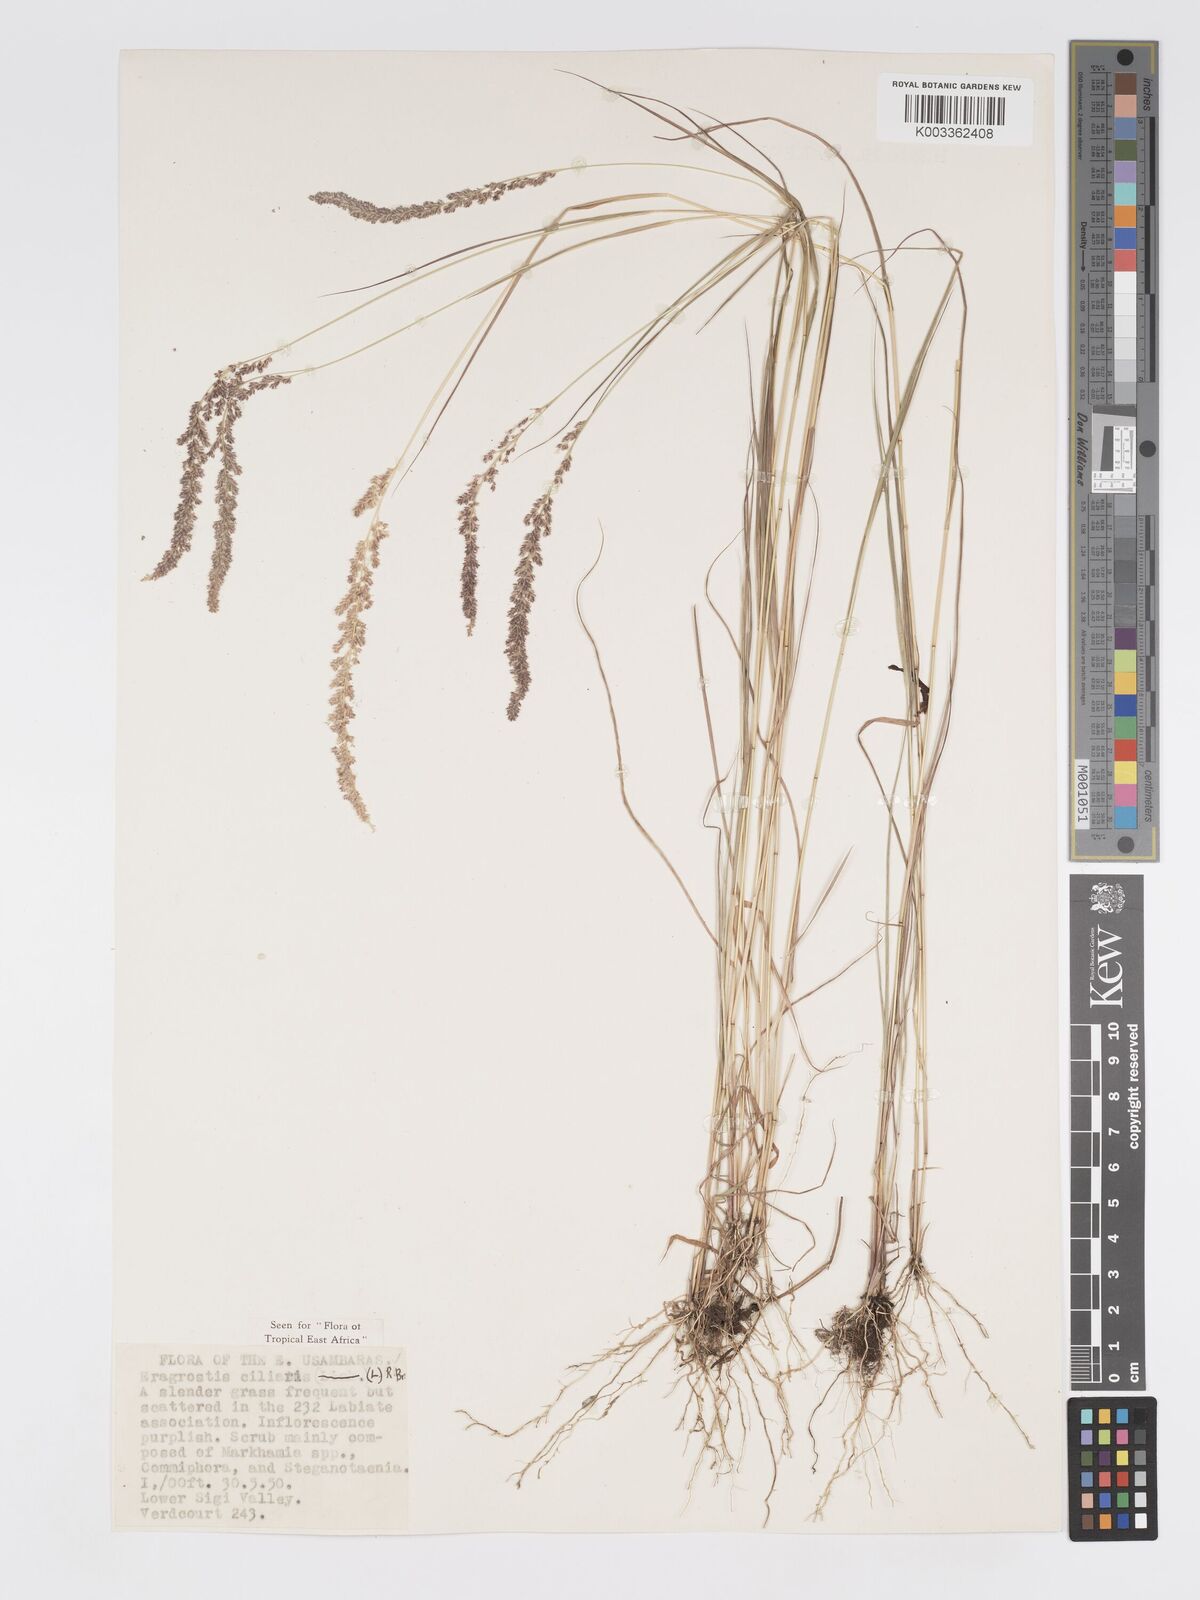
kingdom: Plantae
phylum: Tracheophyta
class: Liliopsida
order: Poales
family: Poaceae
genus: Eragrostis
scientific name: Eragrostis ciliaris
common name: Gophertail lovegrass
